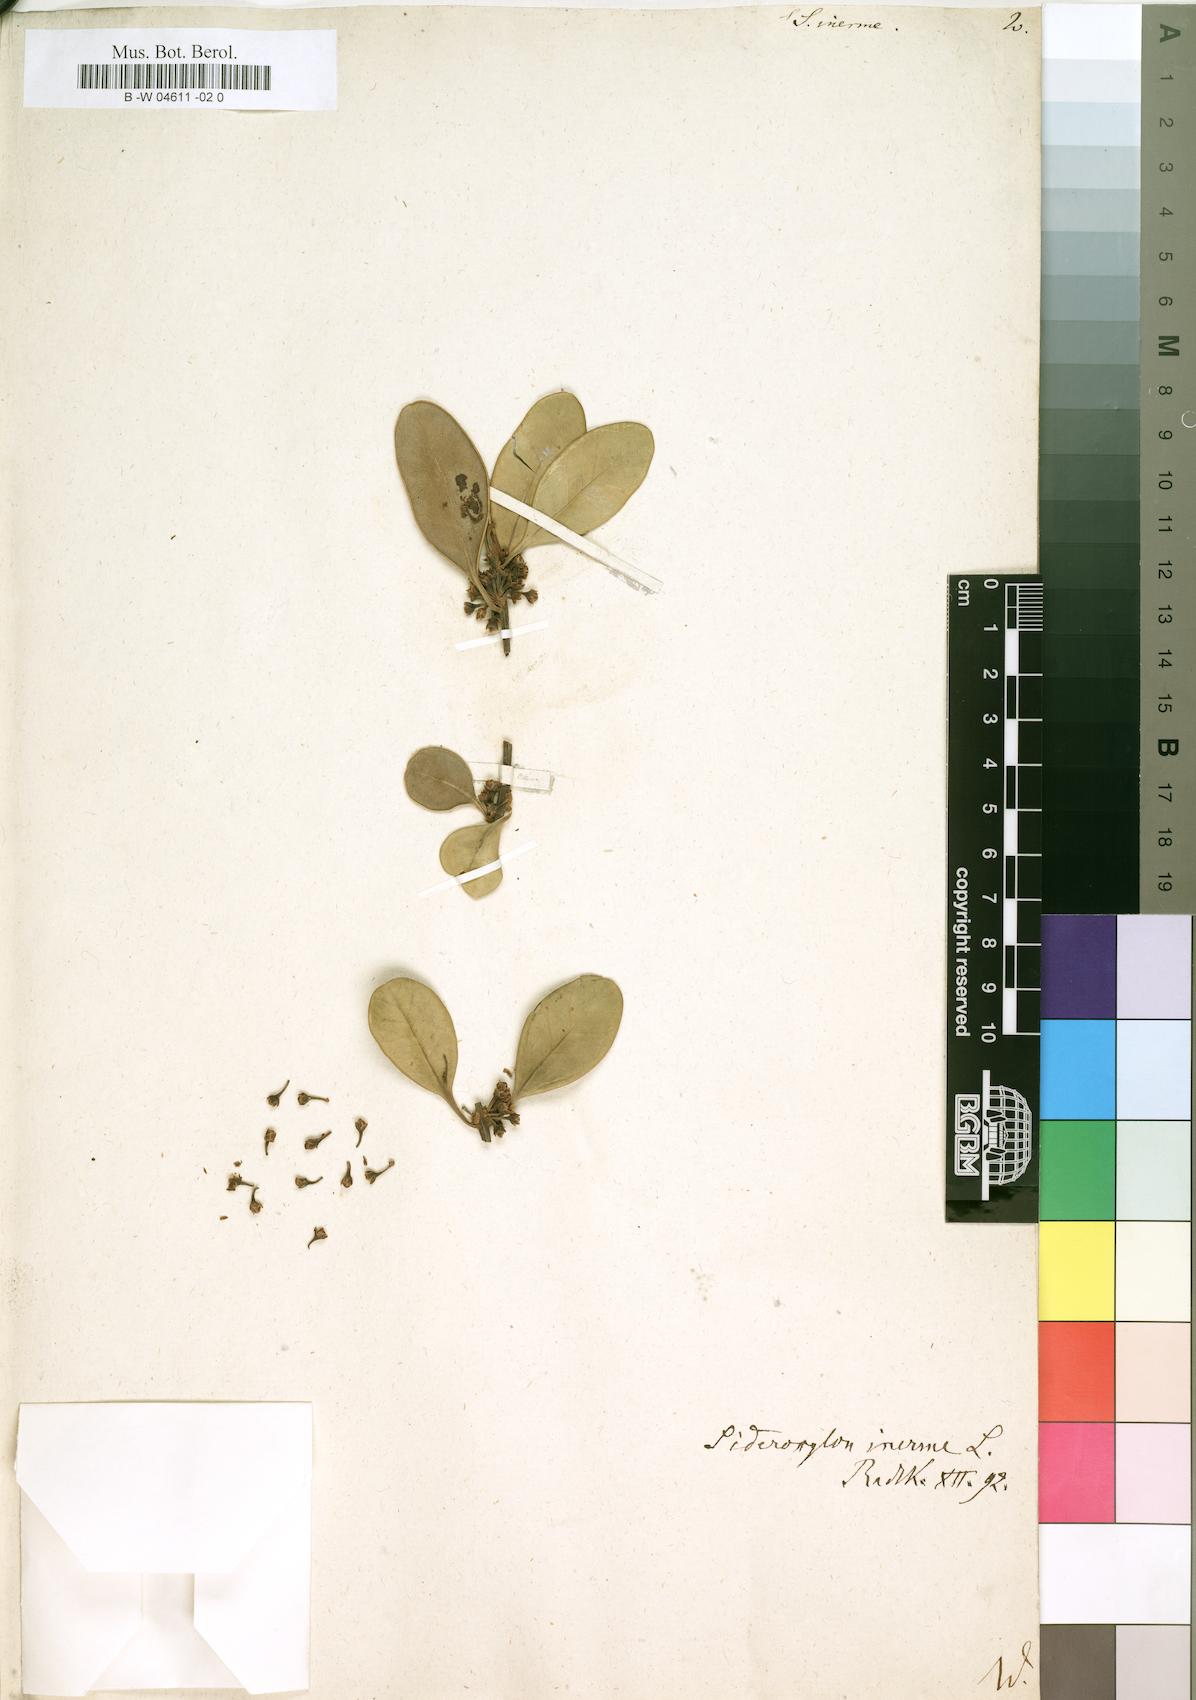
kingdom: Plantae
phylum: Tracheophyta
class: Magnoliopsida
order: Ericales
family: Sapotaceae
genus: Sideroxylon
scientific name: Sideroxylon inerme
